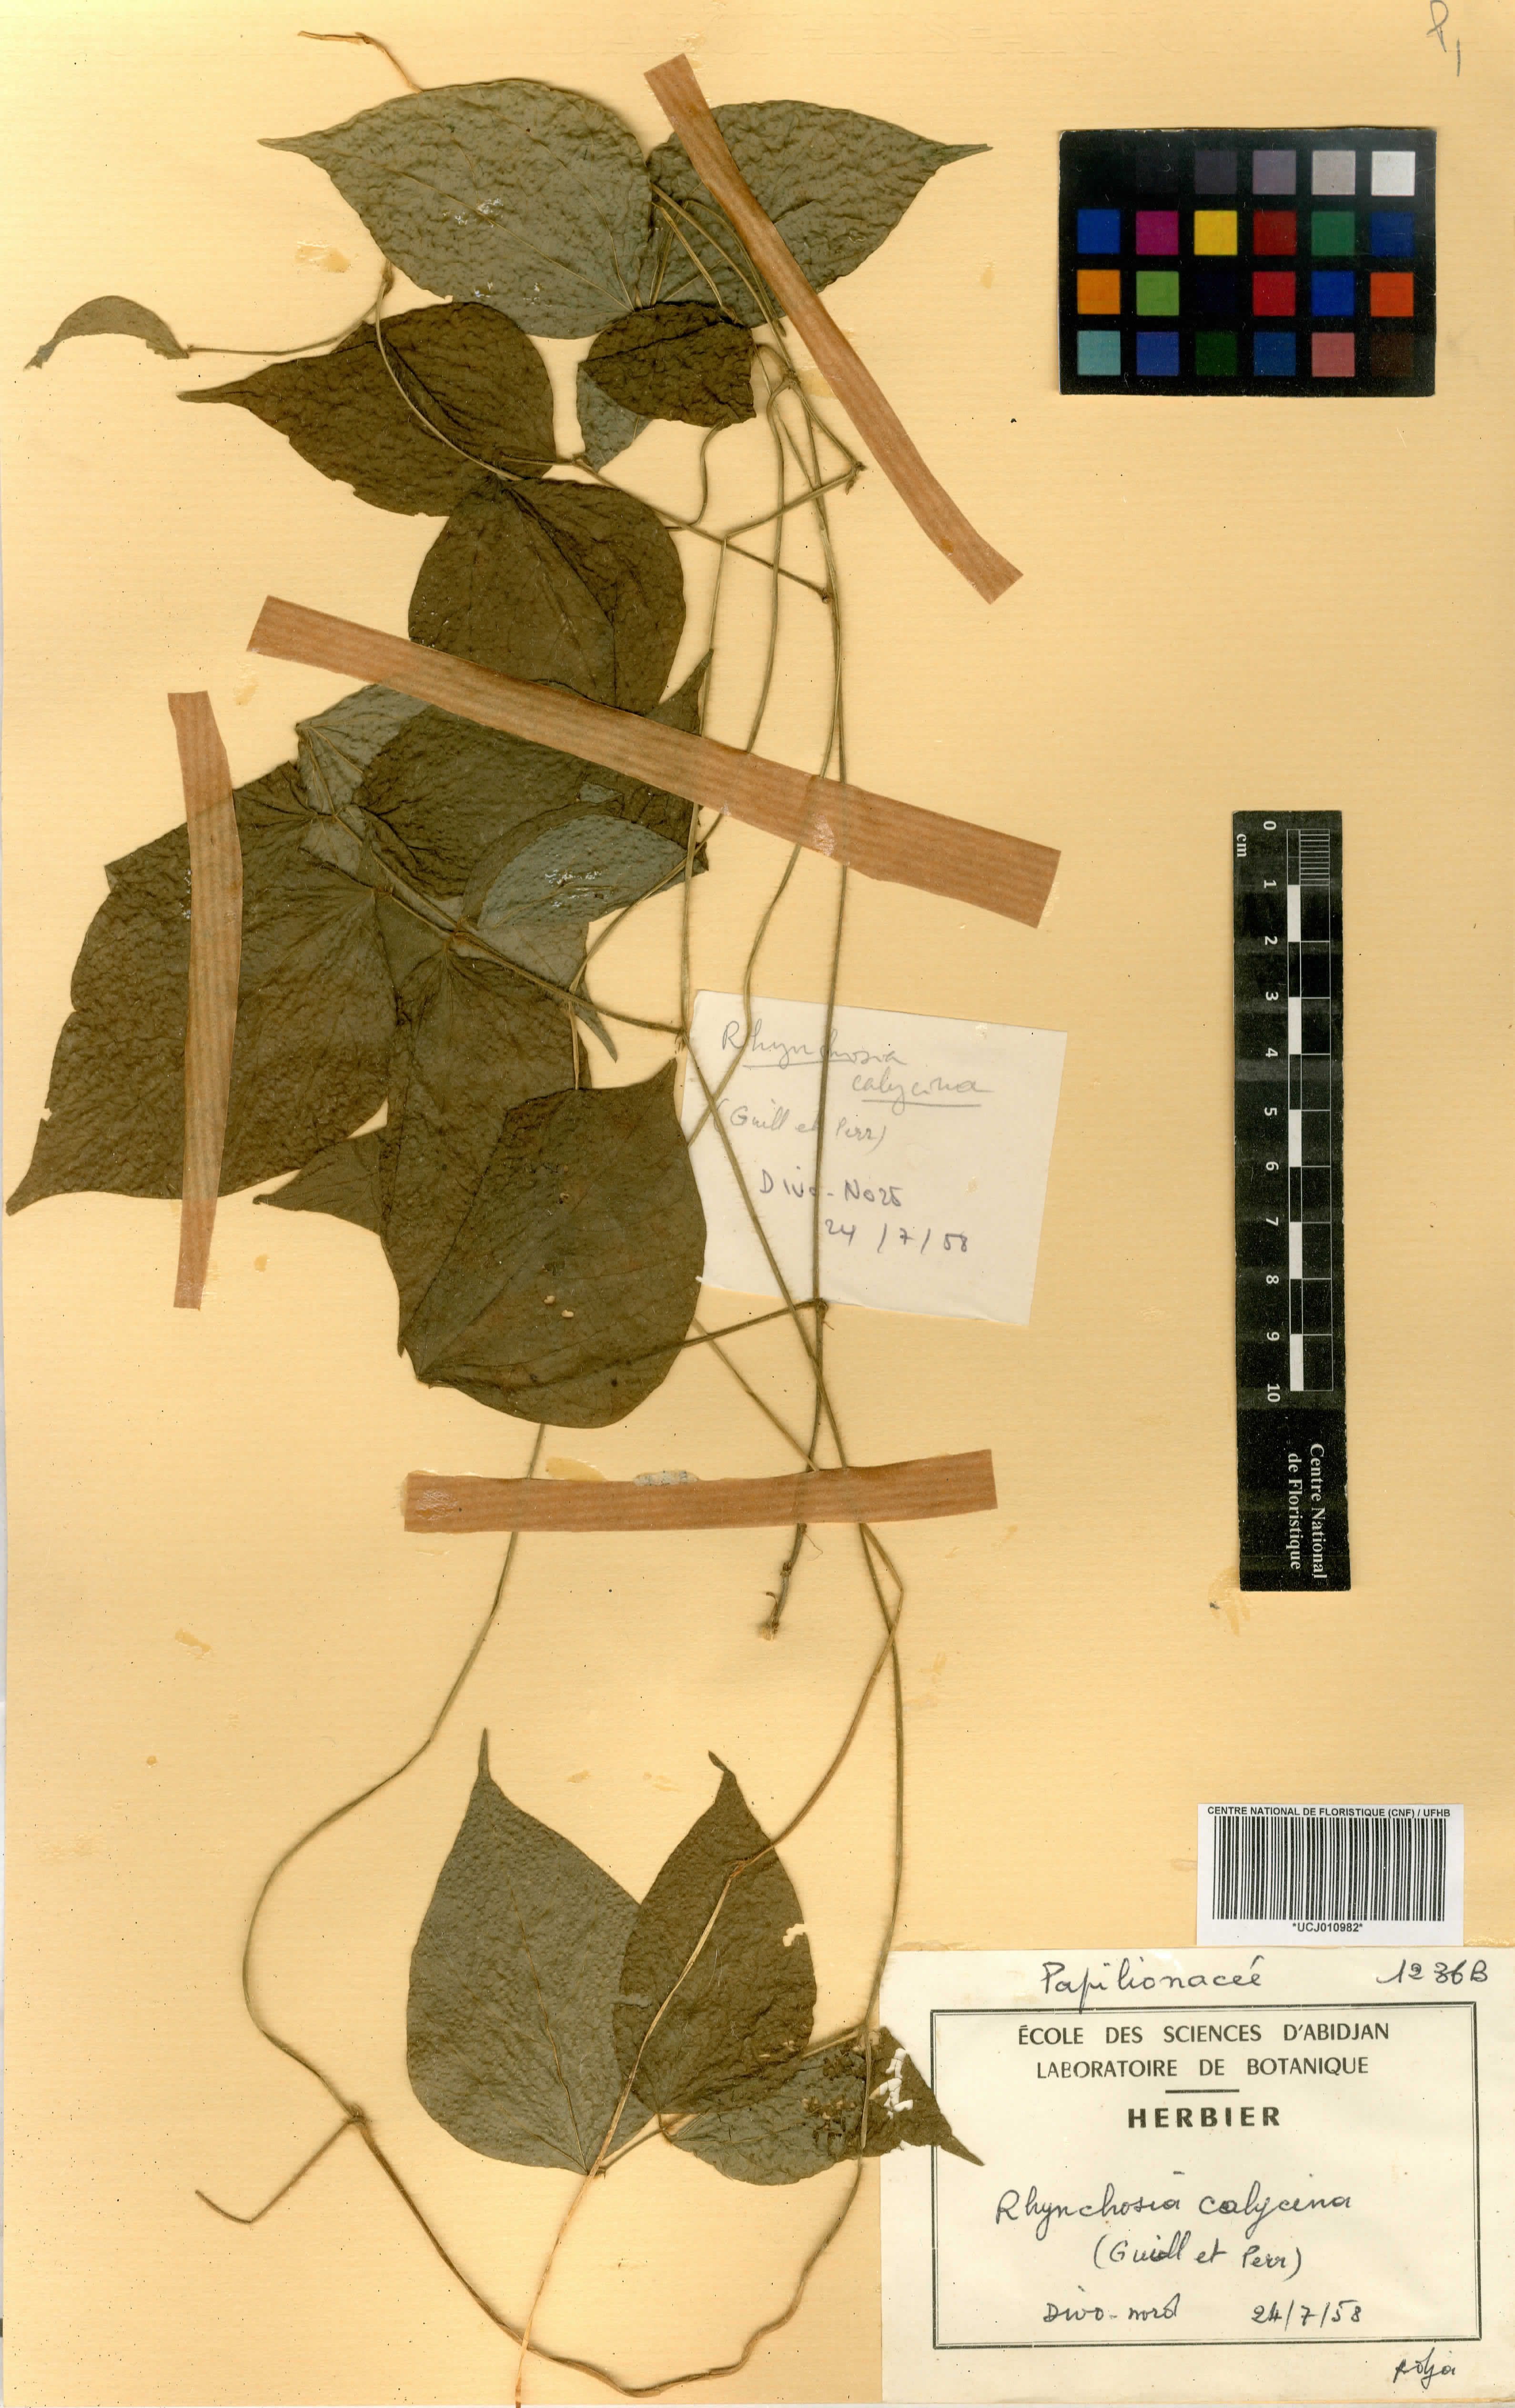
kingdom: Plantae
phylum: Tracheophyta
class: Magnoliopsida
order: Fabales
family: Fabaceae
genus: Rhynchosia
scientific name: Rhynchosia calycina
